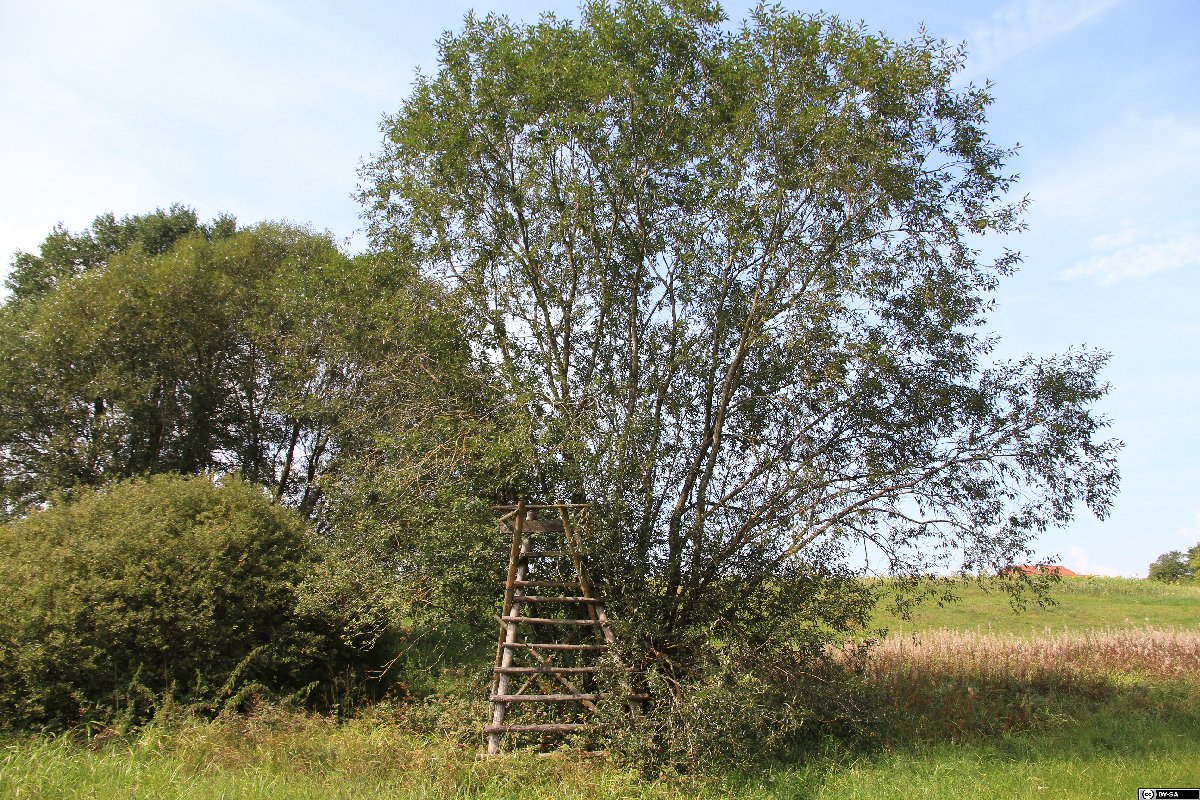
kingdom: Plantae
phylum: Tracheophyta
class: Magnoliopsida
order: Malpighiales
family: Salicaceae
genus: Salix
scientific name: Salix pentandra
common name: Bay willow
